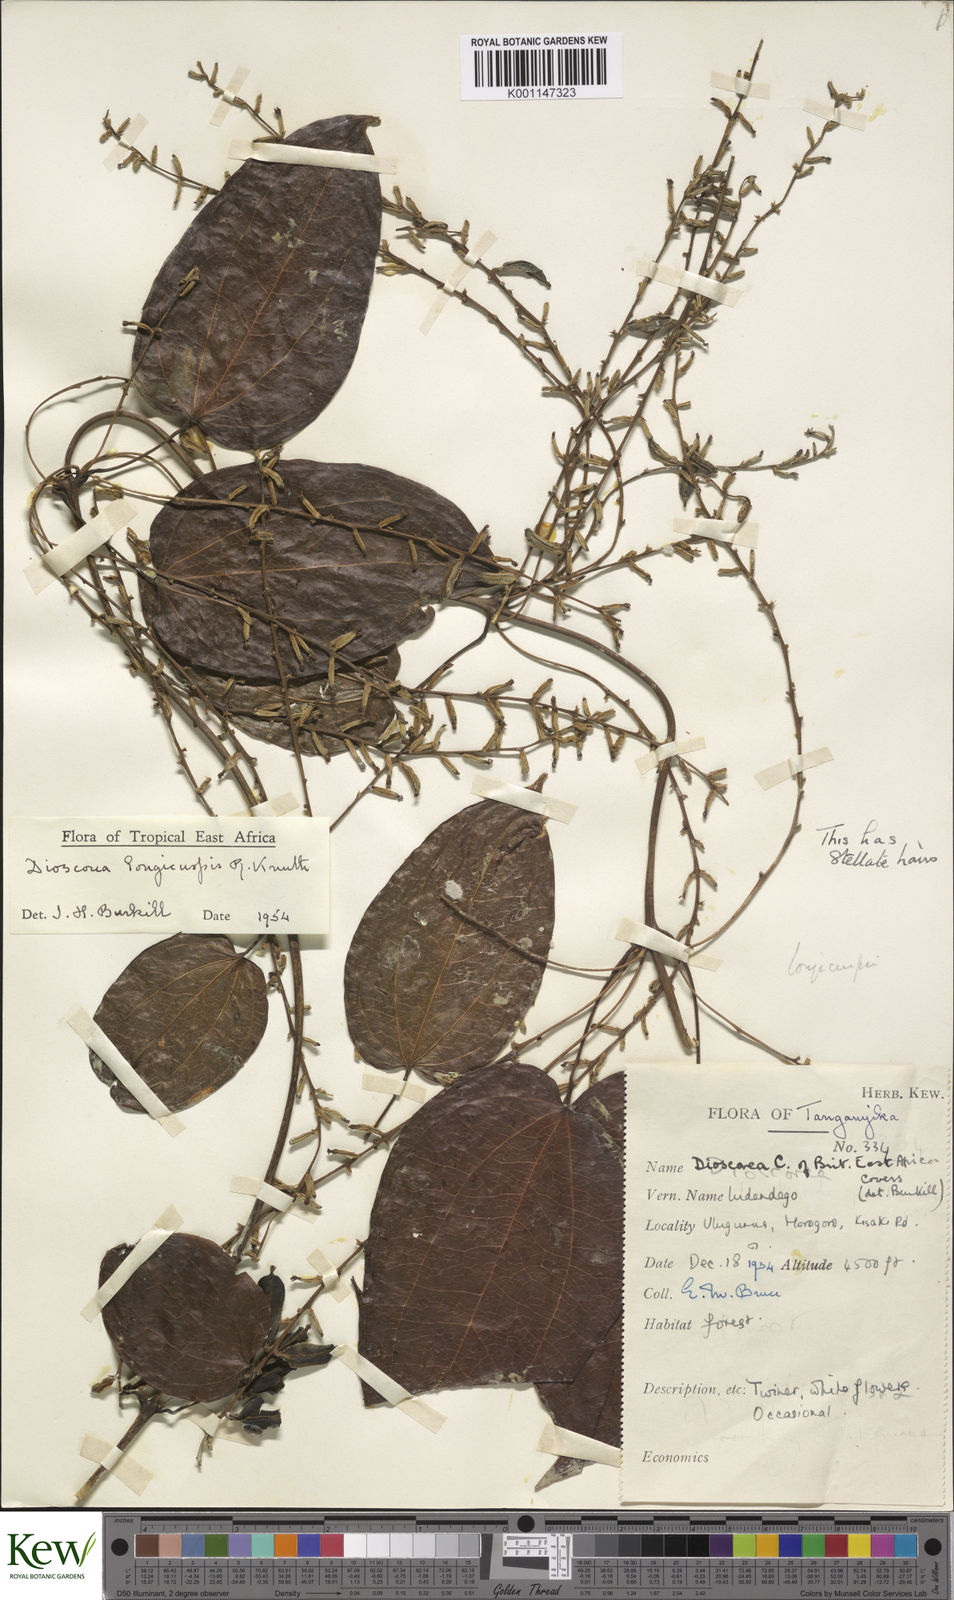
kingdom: Plantae
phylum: Tracheophyta
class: Liliopsida
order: Dioscoreales
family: Dioscoreaceae
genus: Dioscorea
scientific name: Dioscorea longicuspis
